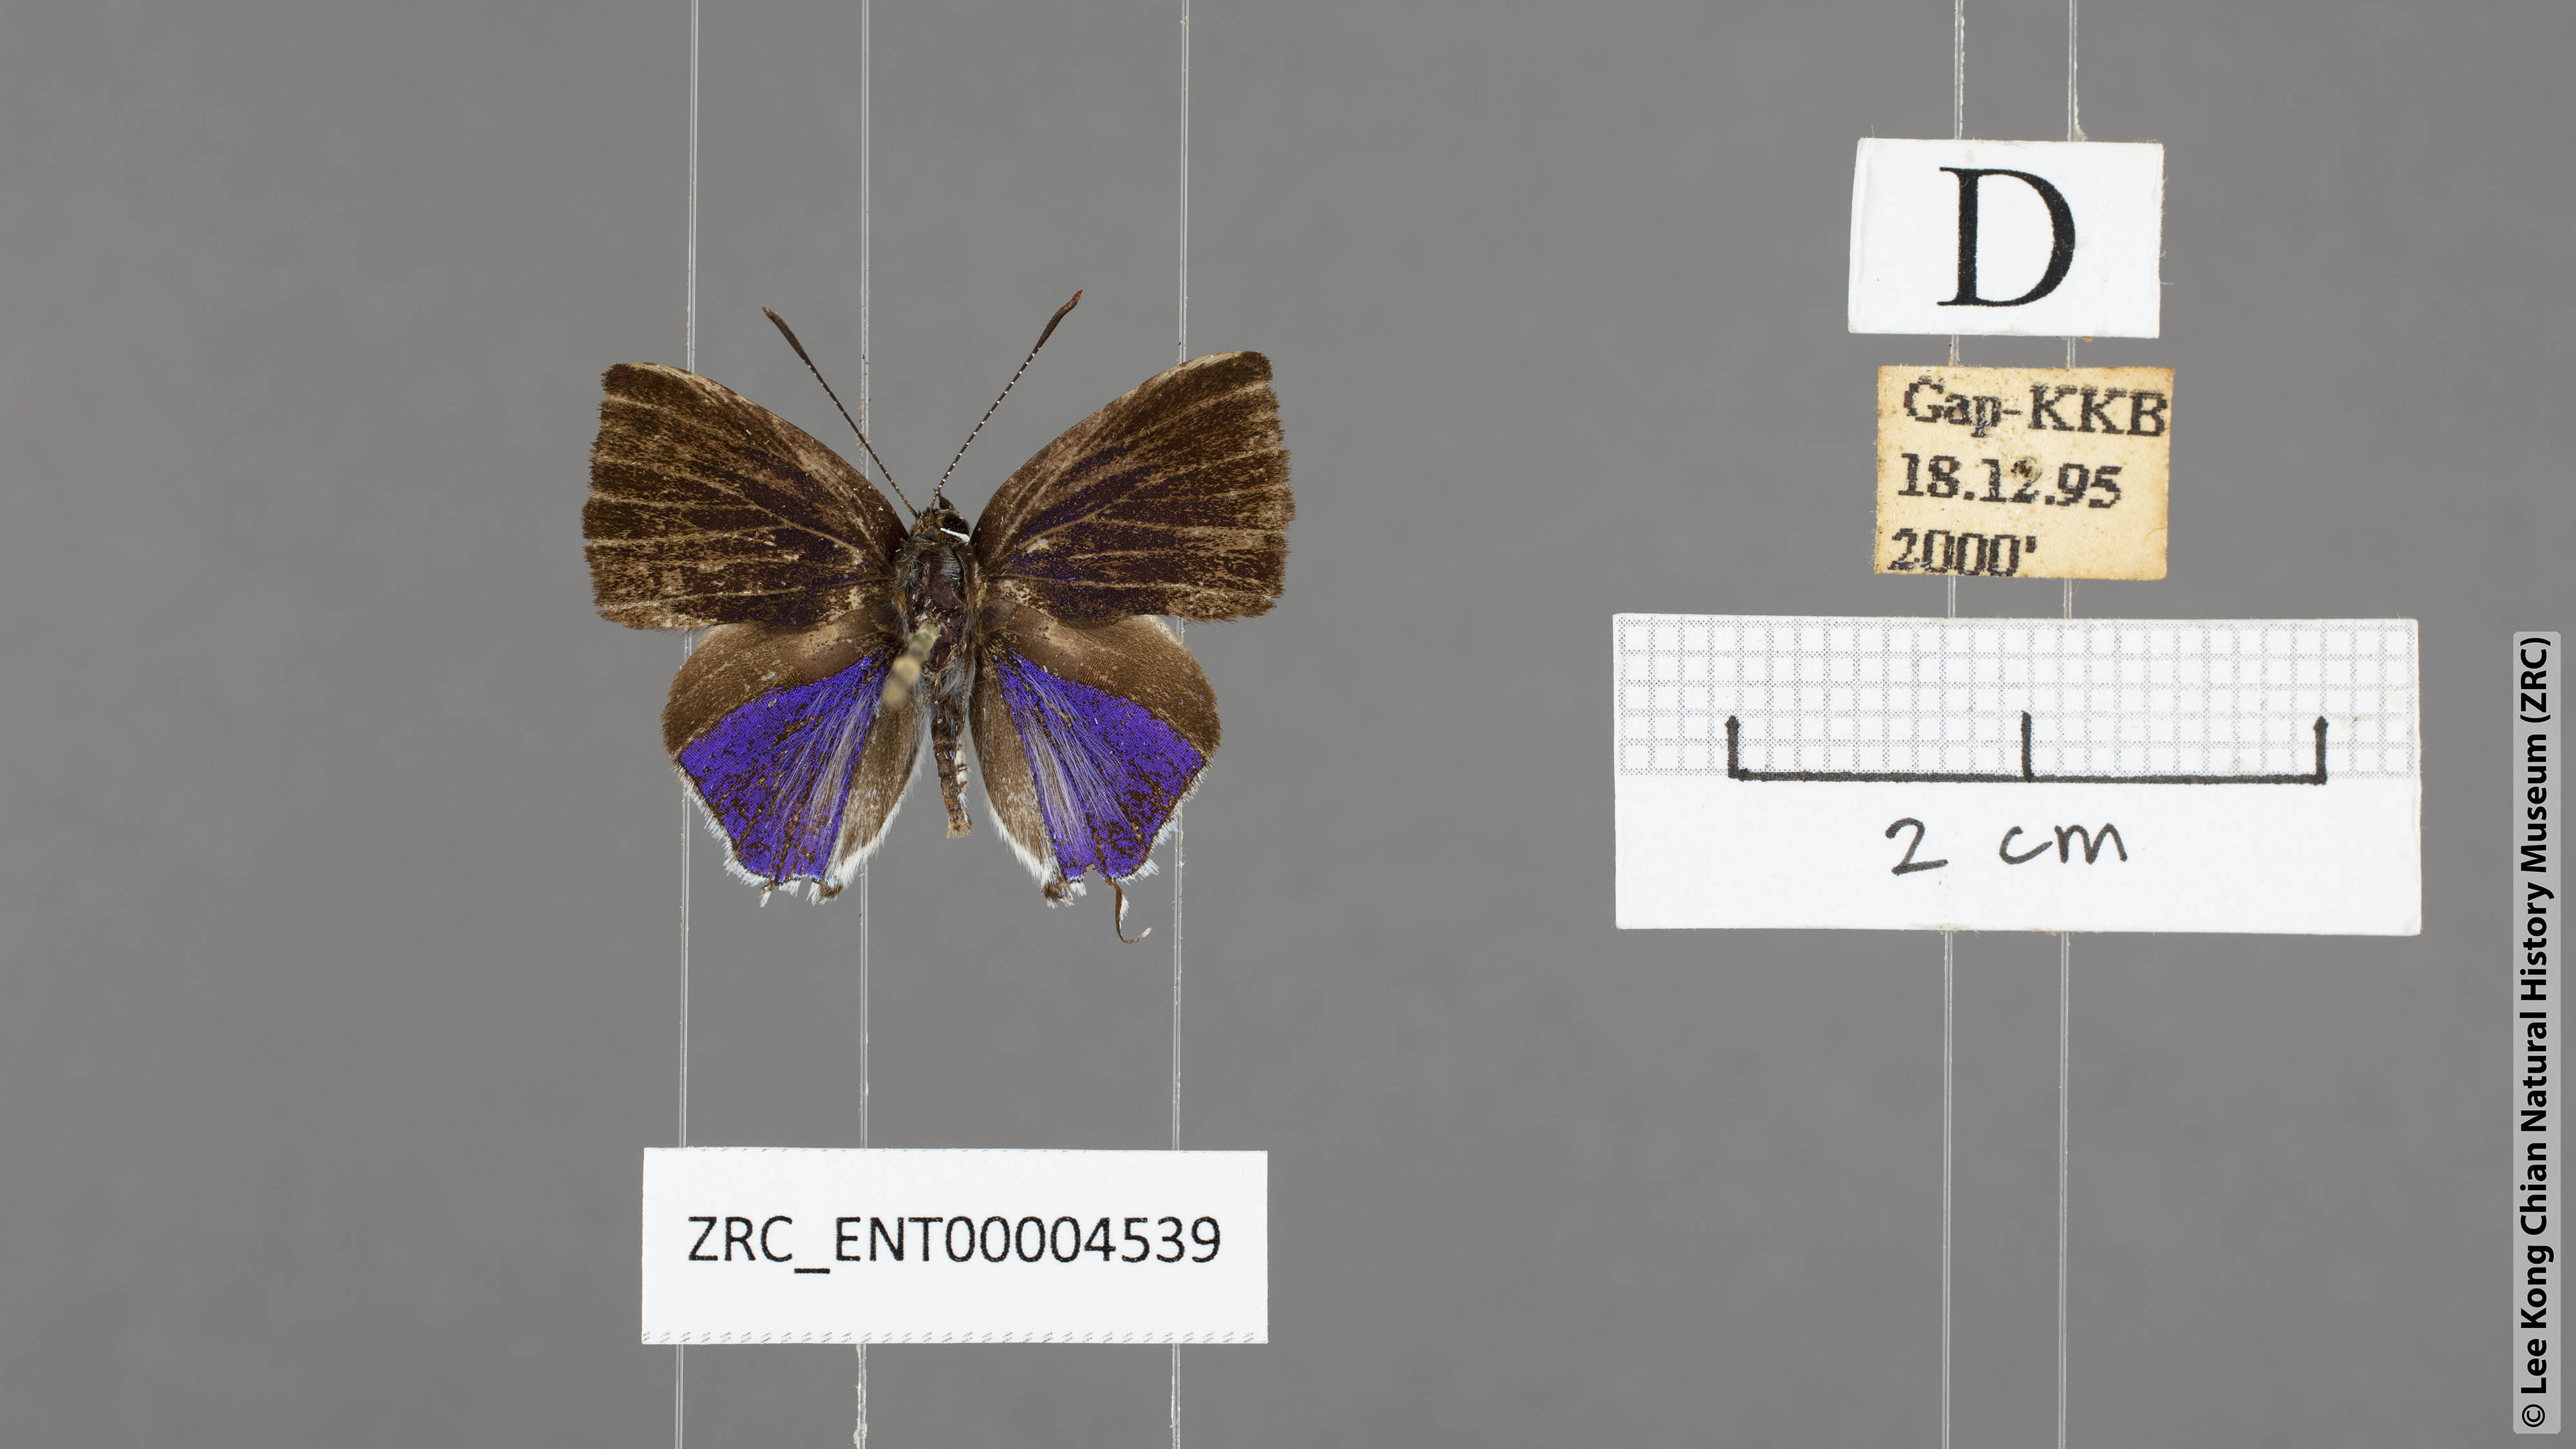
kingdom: Animalia
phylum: Arthropoda
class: Insecta
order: Lepidoptera
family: Lycaenidae
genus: Sinthusa
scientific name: Sinthusa malika
